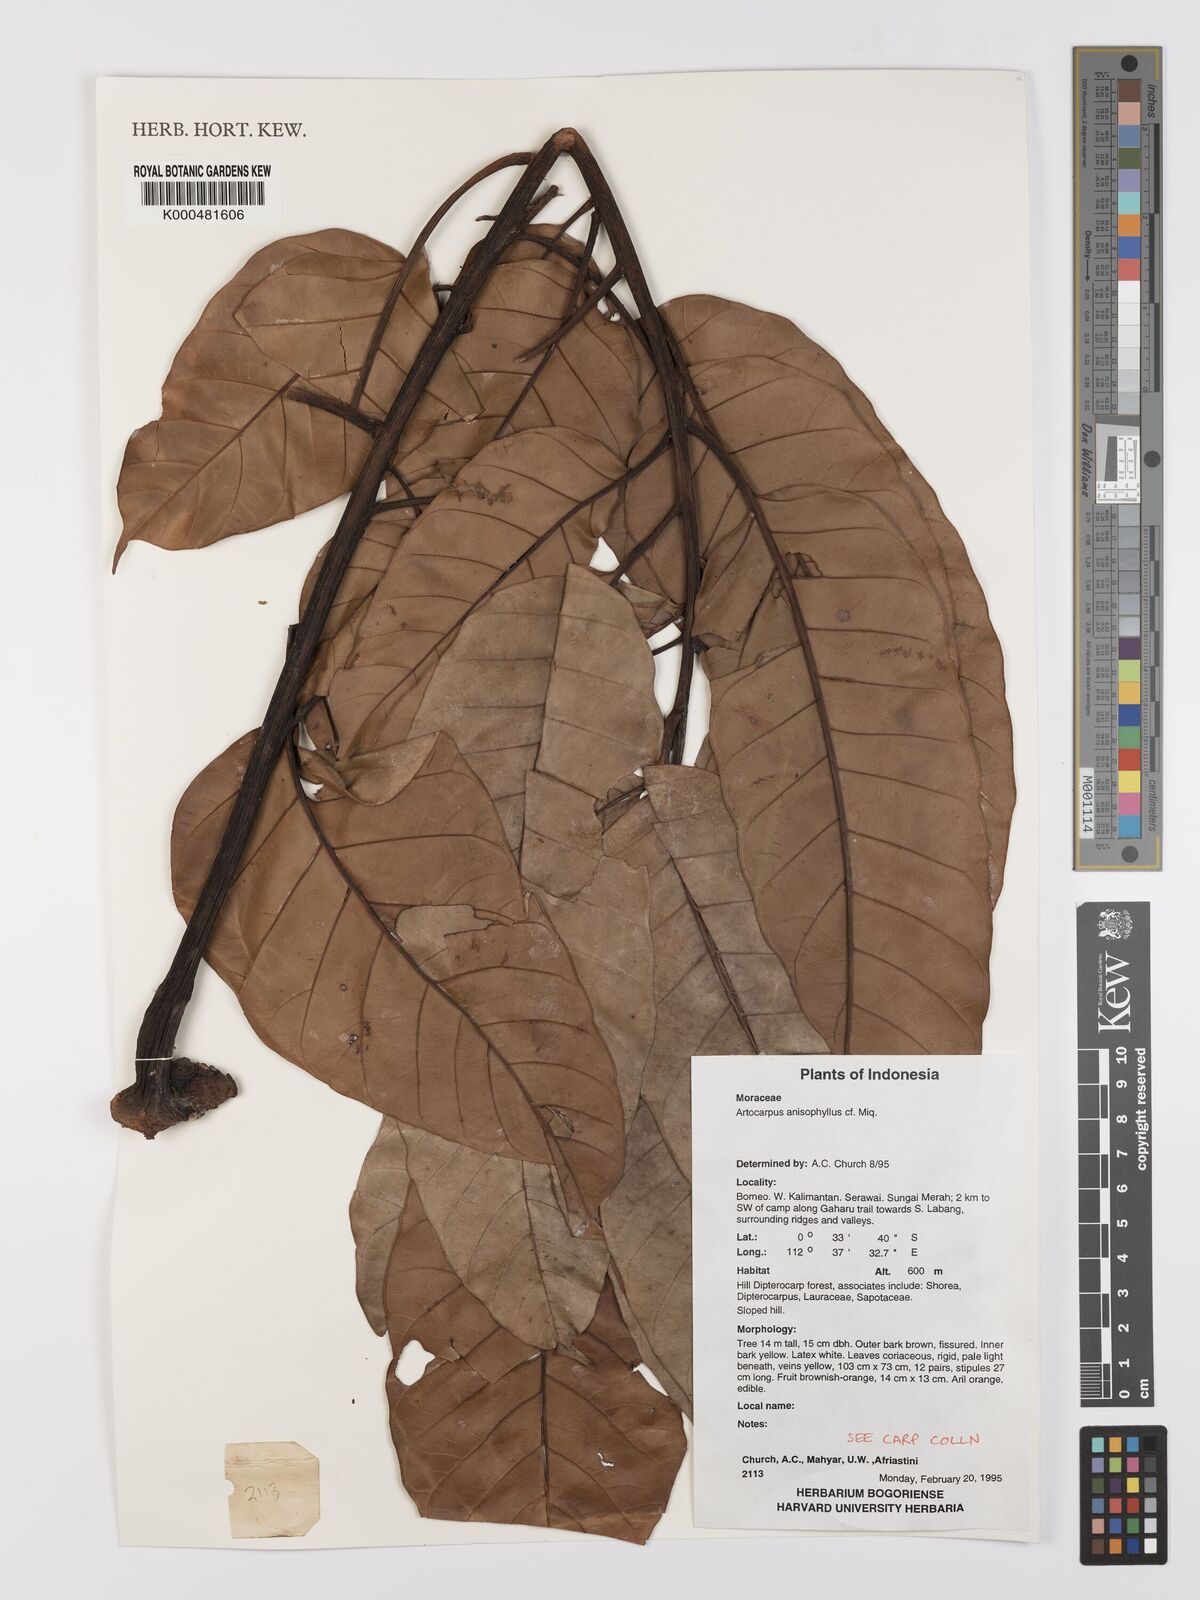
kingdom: Plantae
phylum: Tracheophyta
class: Magnoliopsida
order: Rosales
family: Moraceae
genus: Artocarpus
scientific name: Artocarpus anisophyllus
